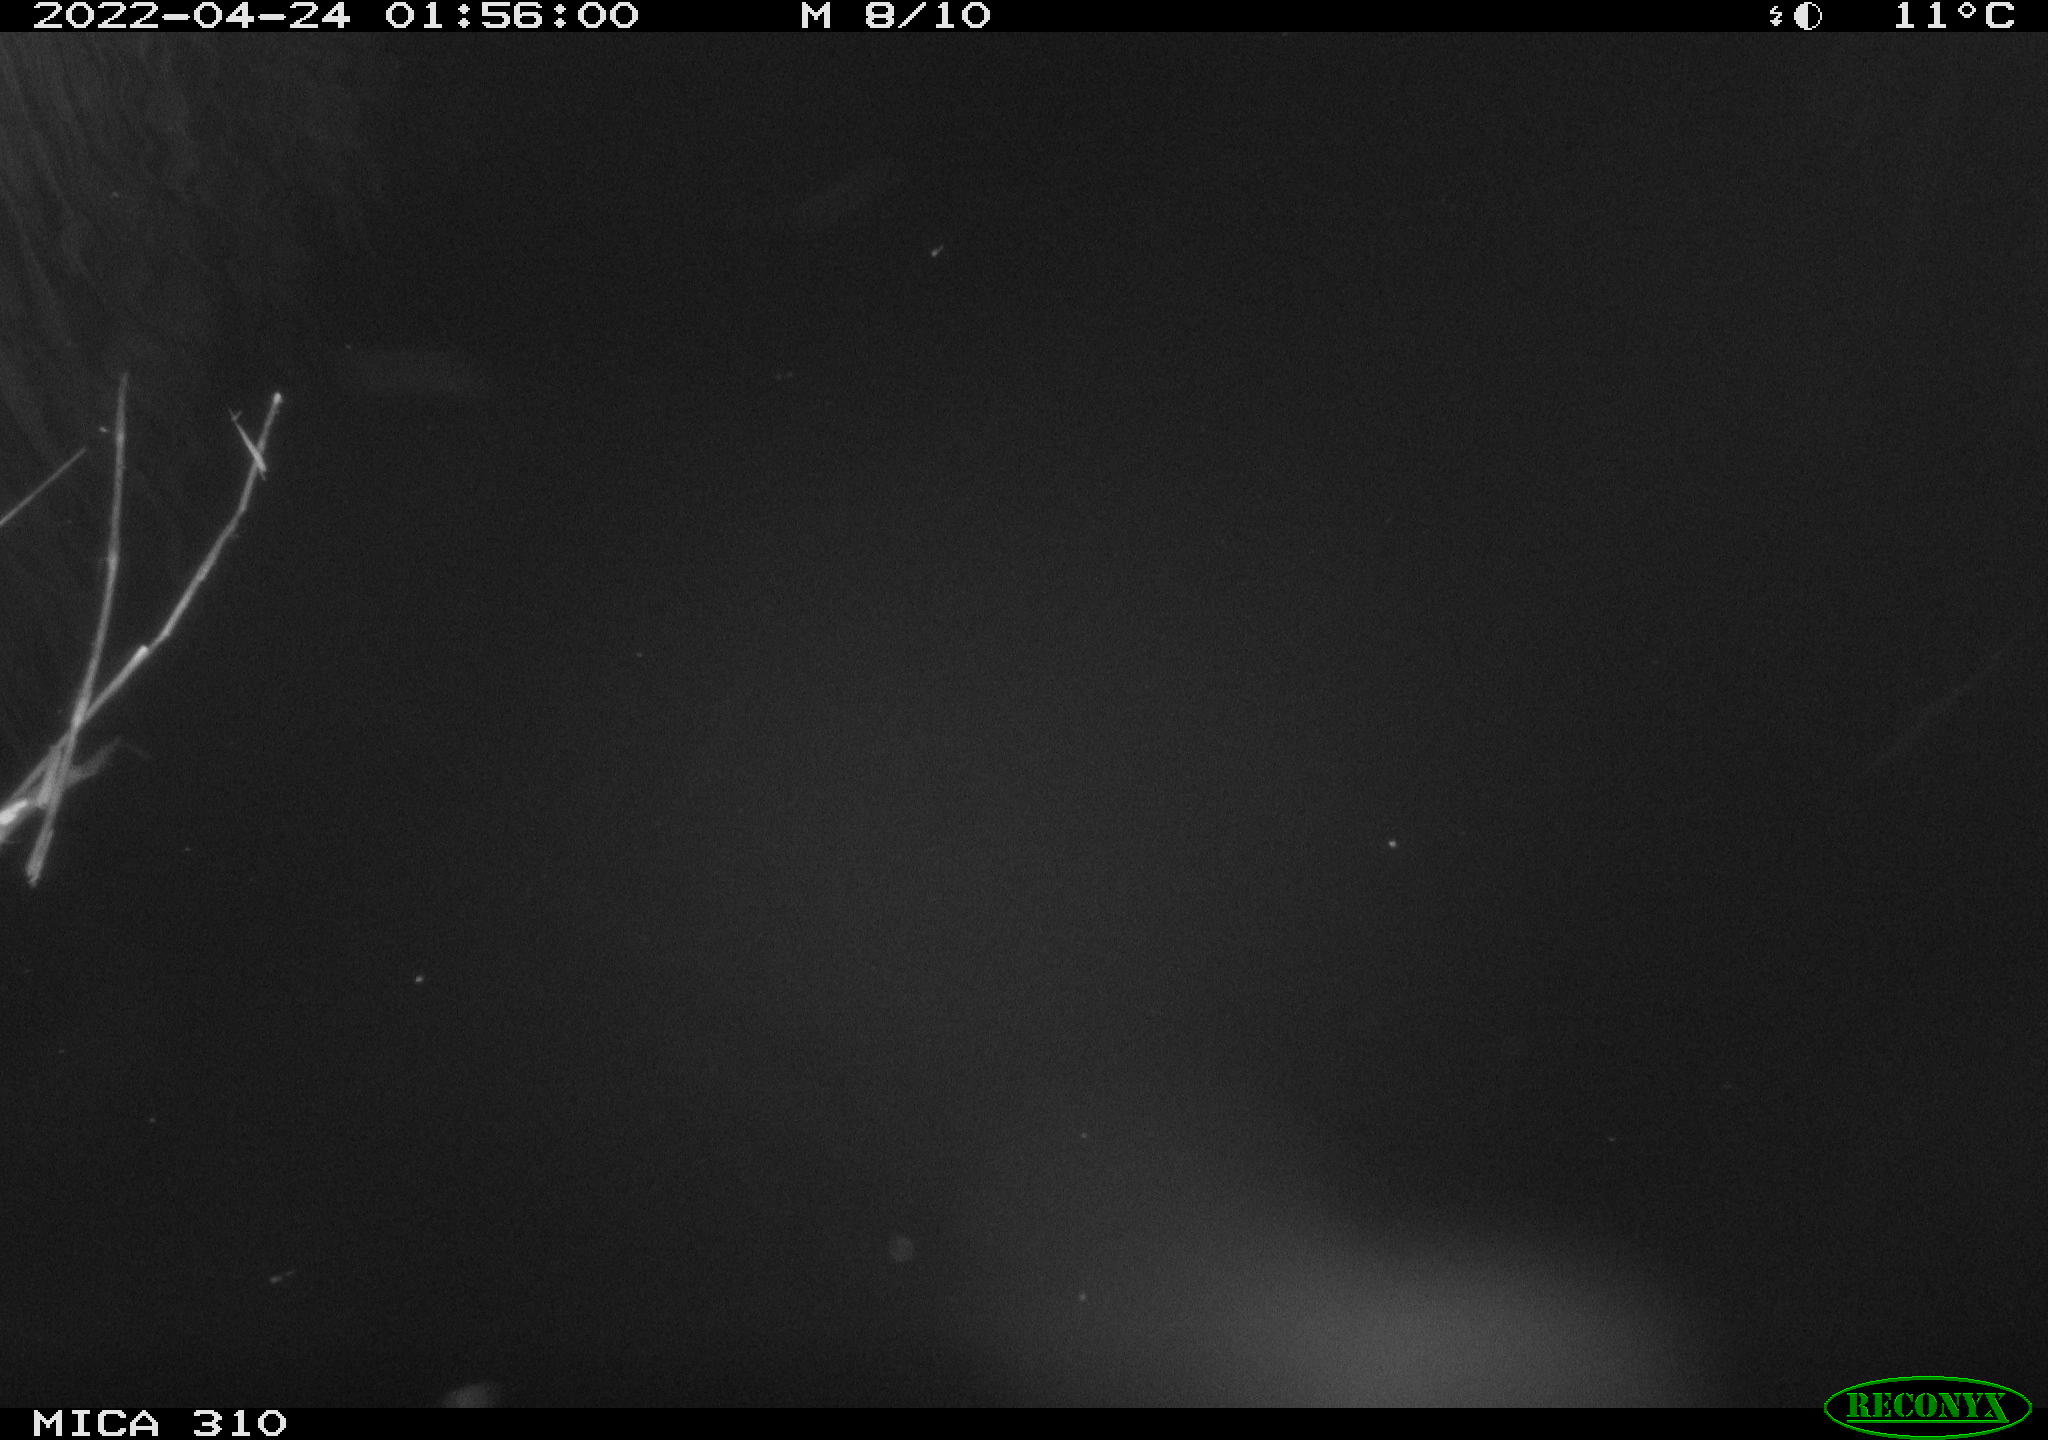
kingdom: Animalia
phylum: Chordata
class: Aves
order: Anseriformes
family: Anatidae
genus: Anas
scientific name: Anas platyrhynchos
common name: Mallard
